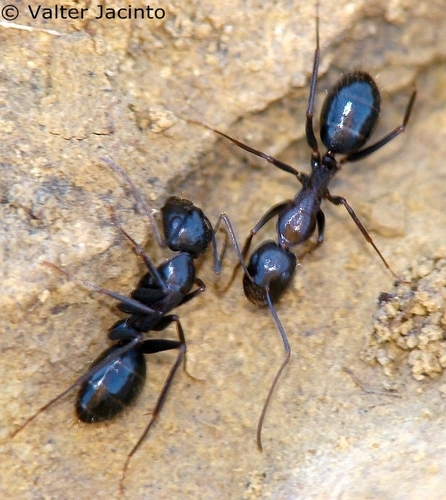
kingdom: Animalia
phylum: Arthropoda
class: Insecta
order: Hymenoptera
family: Formicidae
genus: Camponotus
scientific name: Camponotus sylvaticus
